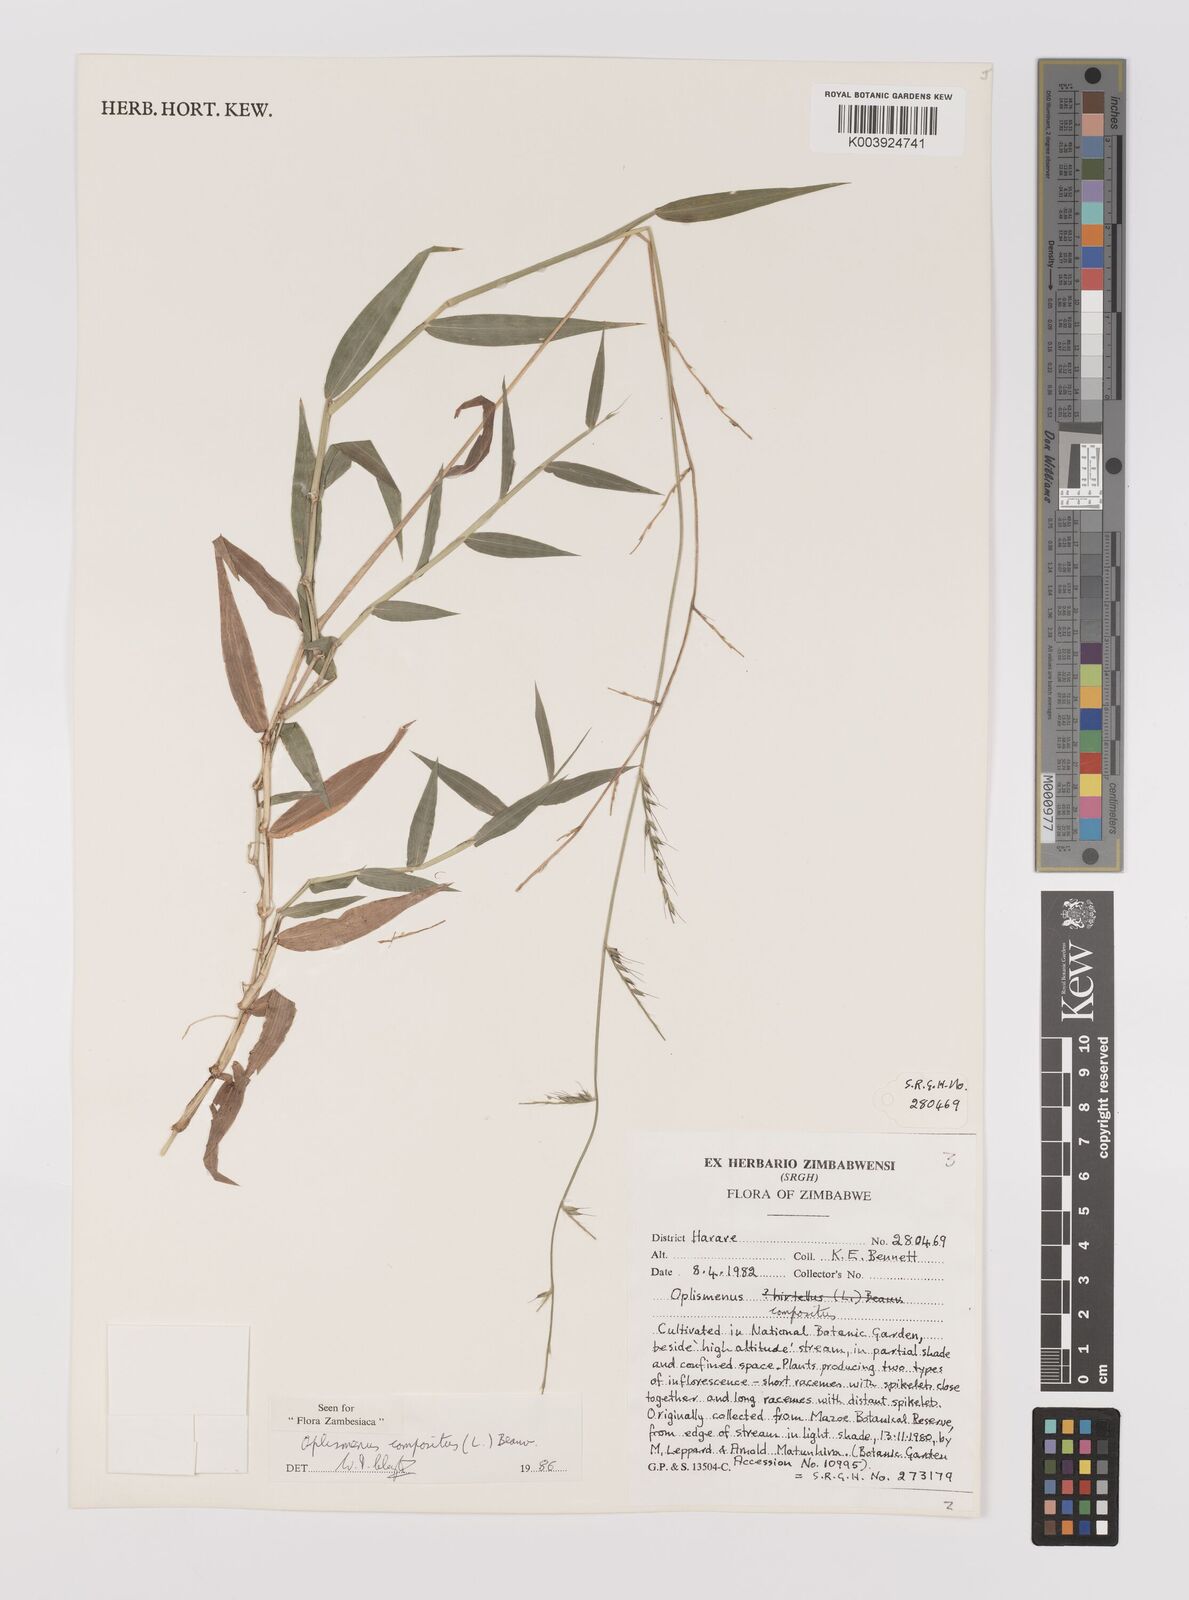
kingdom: Plantae
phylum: Tracheophyta
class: Liliopsida
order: Poales
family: Poaceae
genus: Oplismenus
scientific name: Oplismenus compositus
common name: Running mountain grass
